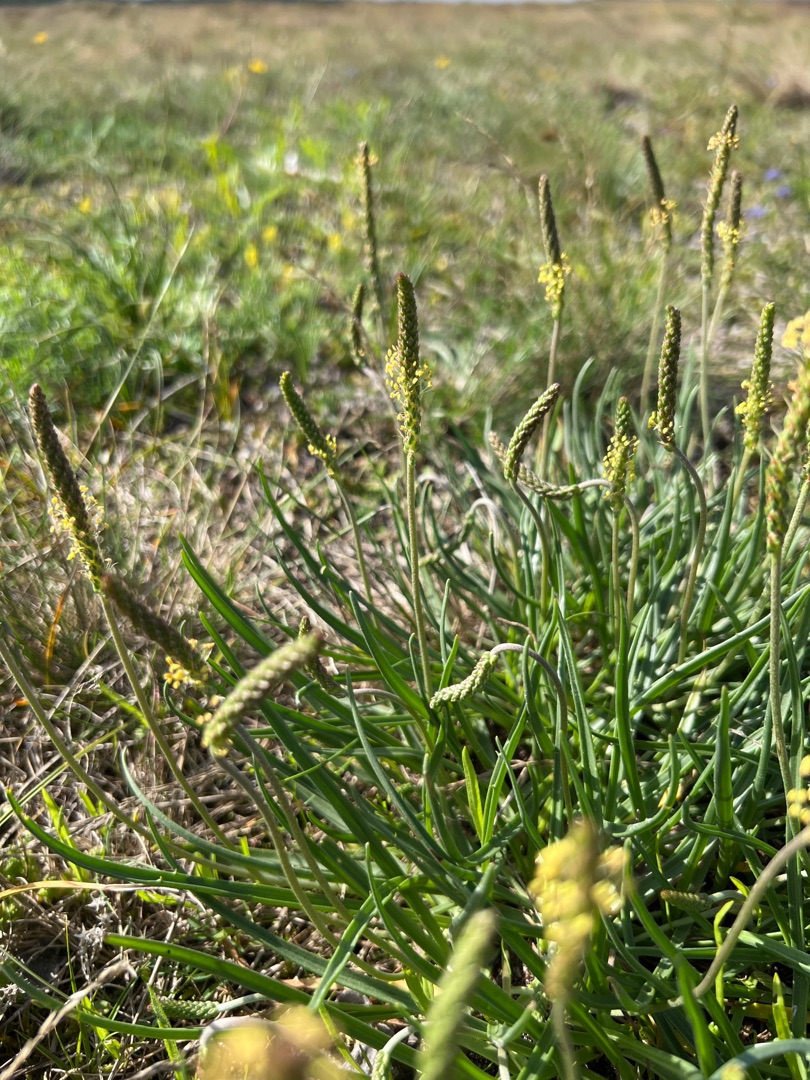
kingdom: Plantae
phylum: Tracheophyta
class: Magnoliopsida
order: Lamiales
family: Plantaginaceae
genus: Plantago
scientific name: Plantago maritima
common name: Strand-vejbred
